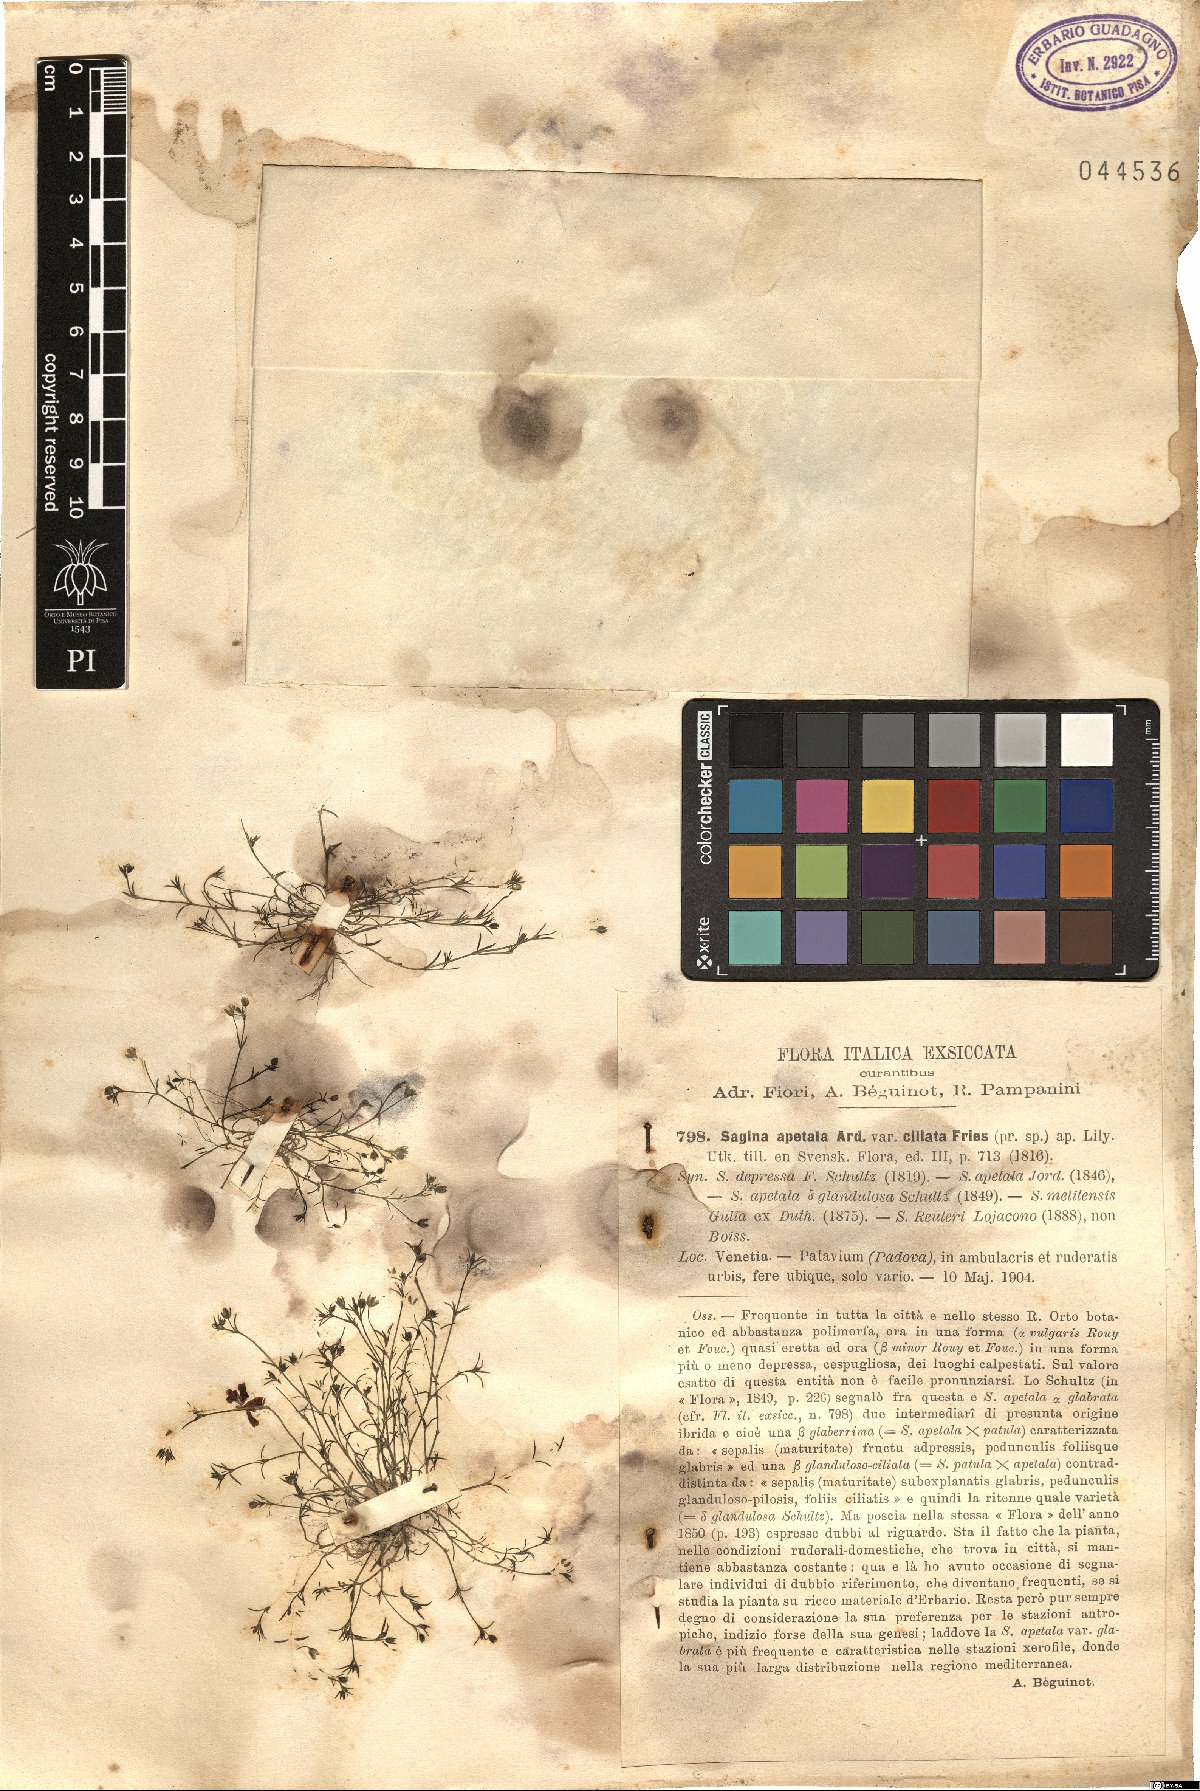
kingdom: Plantae
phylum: Tracheophyta
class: Magnoliopsida
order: Caryophyllales
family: Caryophyllaceae
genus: Sagina
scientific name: Sagina apetala
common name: Annual pearlwort
